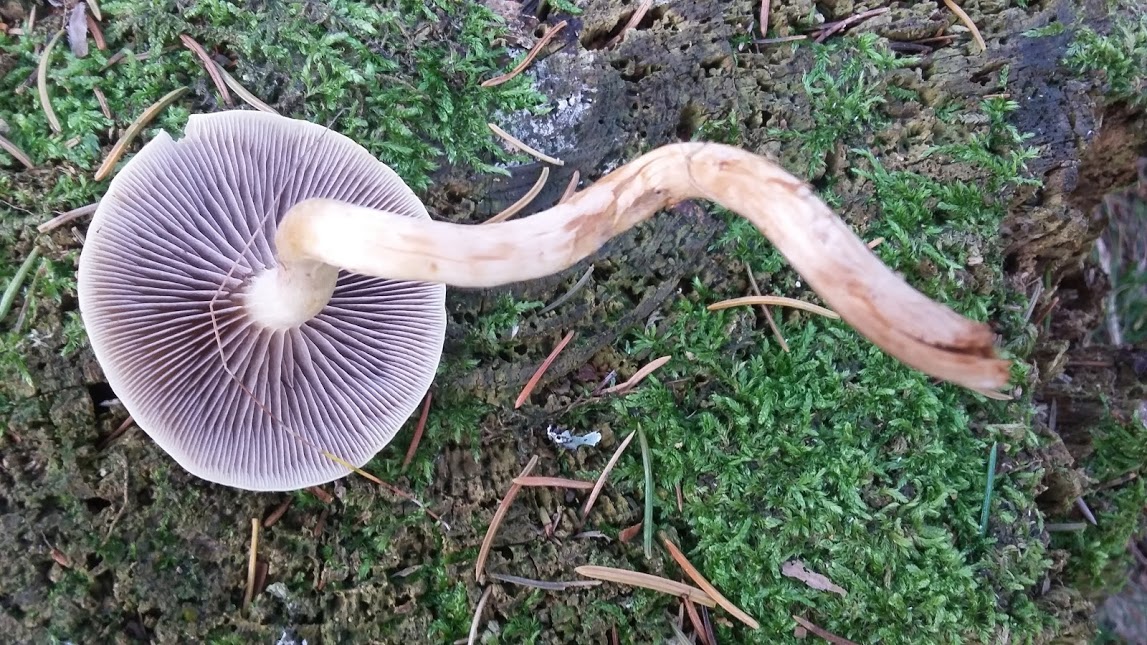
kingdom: Fungi
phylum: Basidiomycota
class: Agaricomycetes
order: Agaricales
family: Strophariaceae
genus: Hypholoma
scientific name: Hypholoma capnoides
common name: gran-svovlhat
